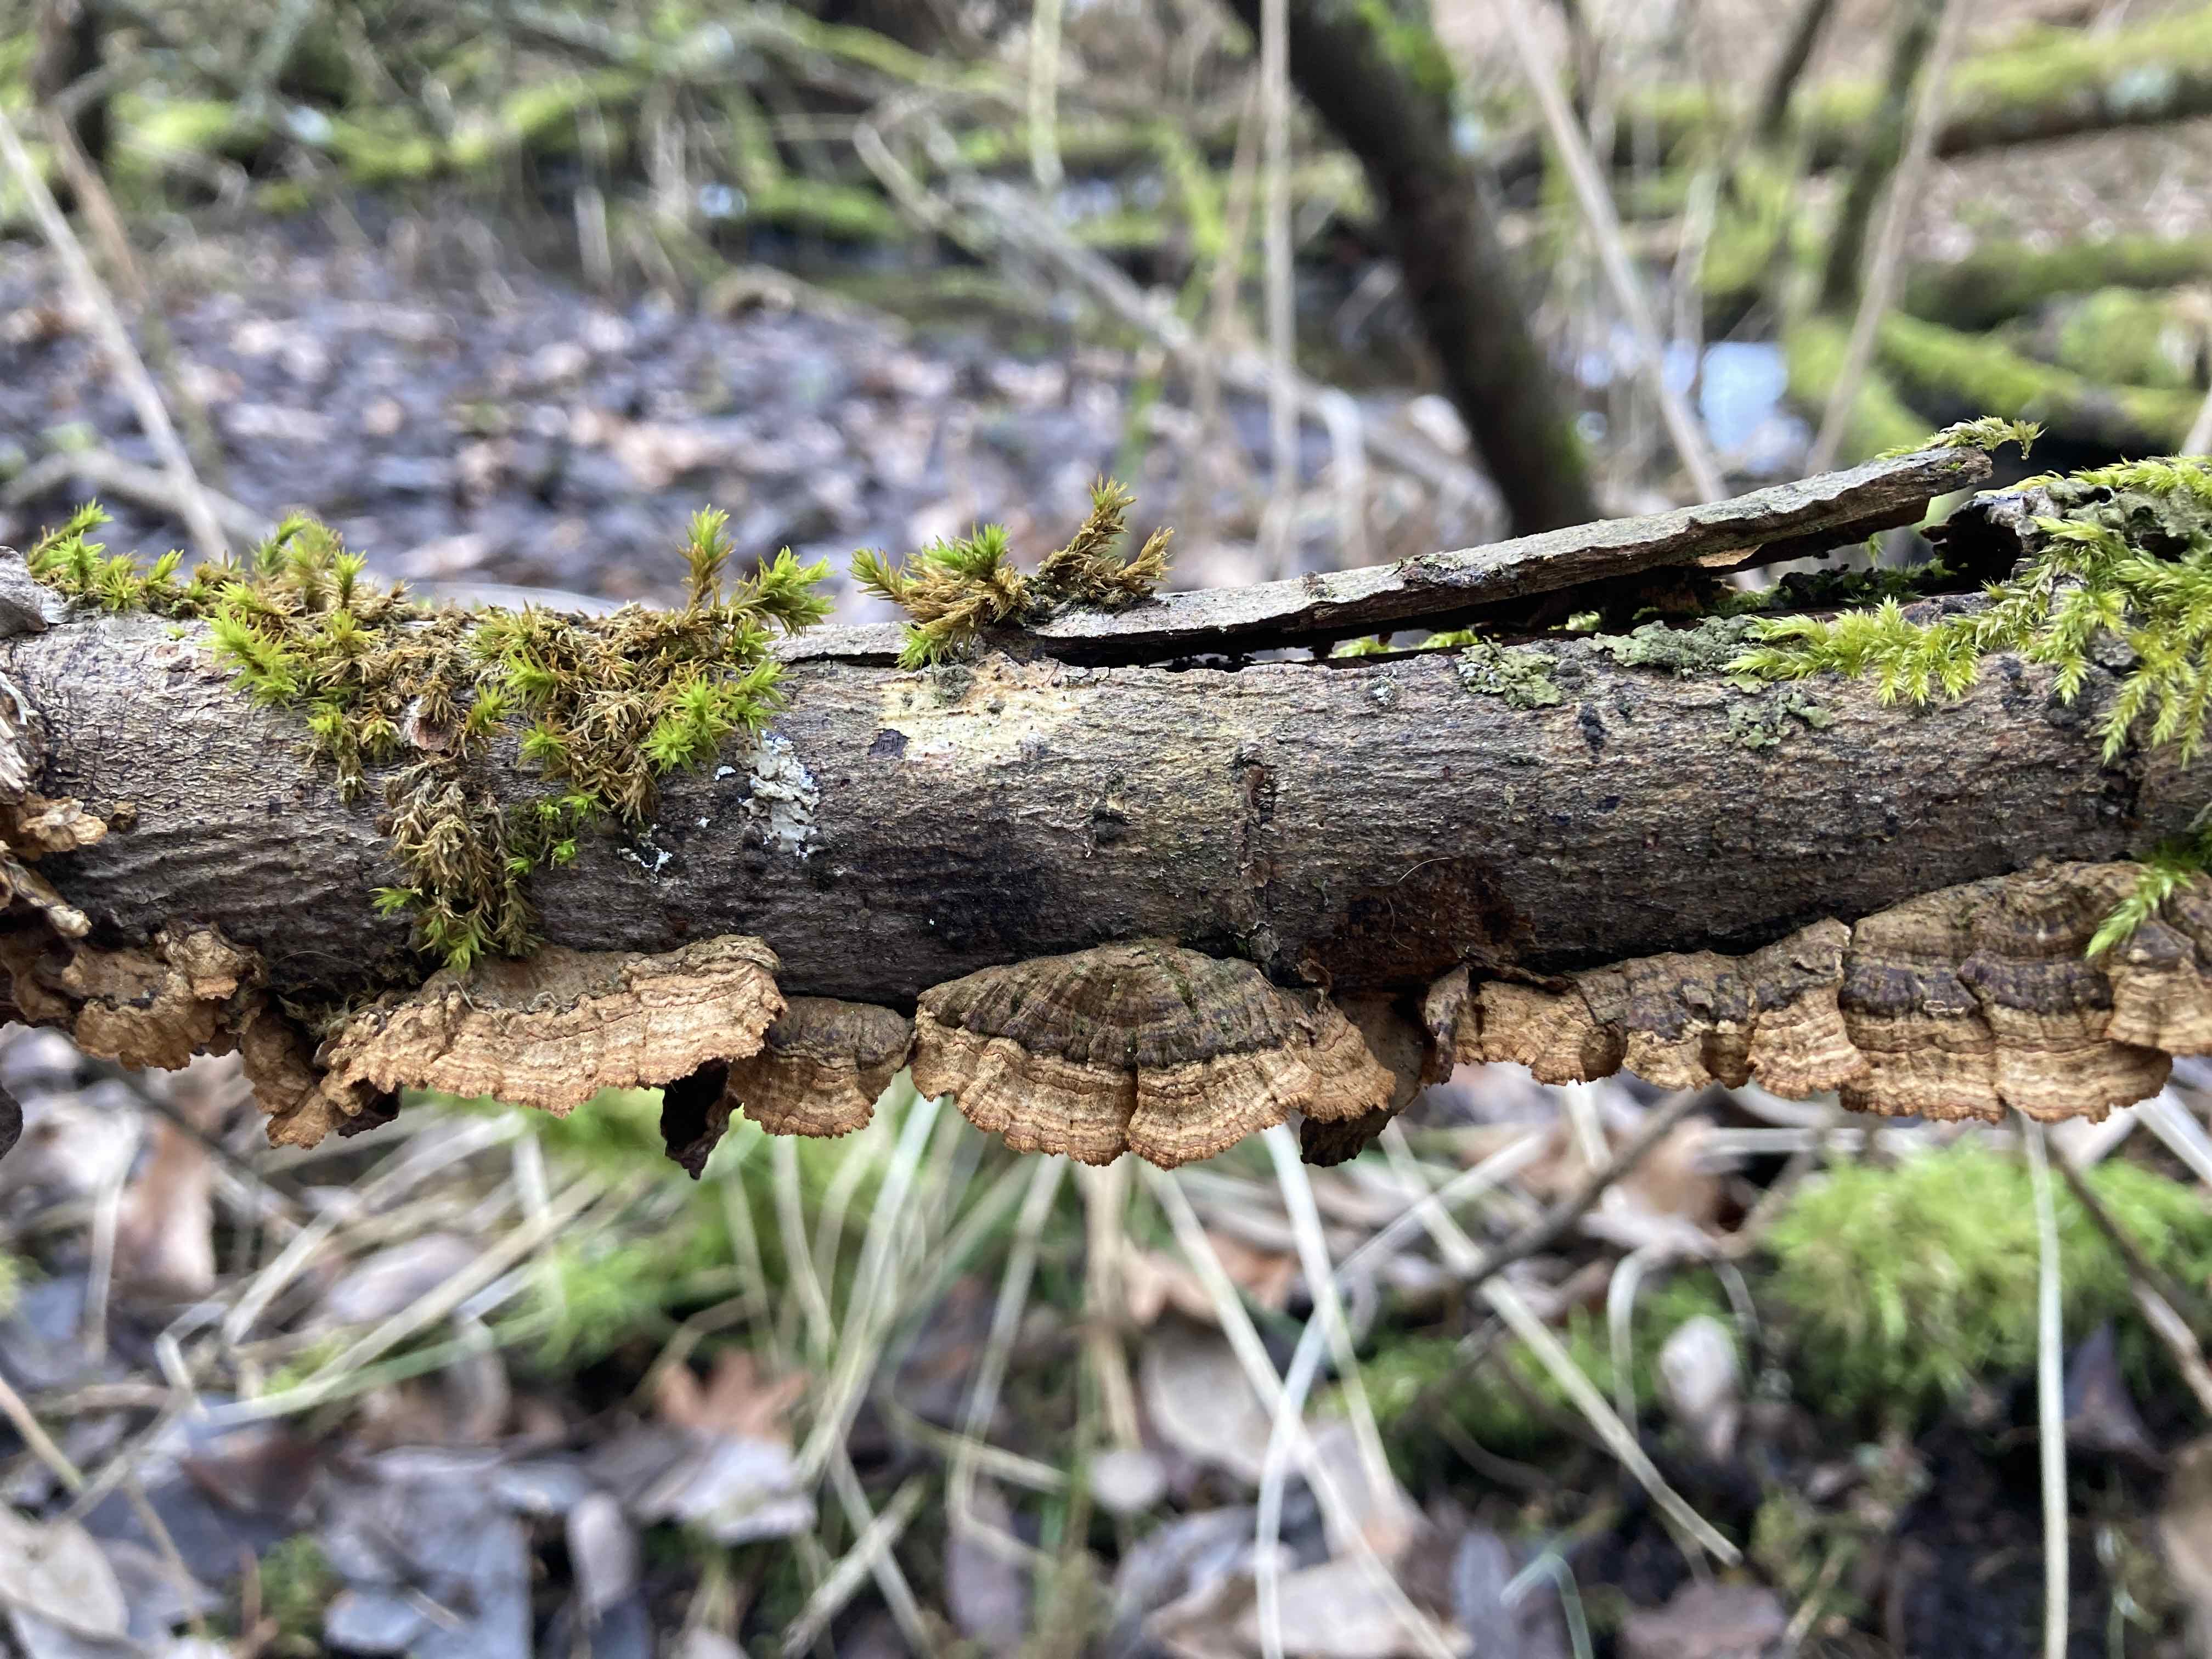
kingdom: Fungi
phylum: Basidiomycota
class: Agaricomycetes
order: Hymenochaetales
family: Hymenochaetaceae
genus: Hydnoporia
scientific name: Hydnoporia tabacina
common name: tobaksbrun ruslædersvamp
